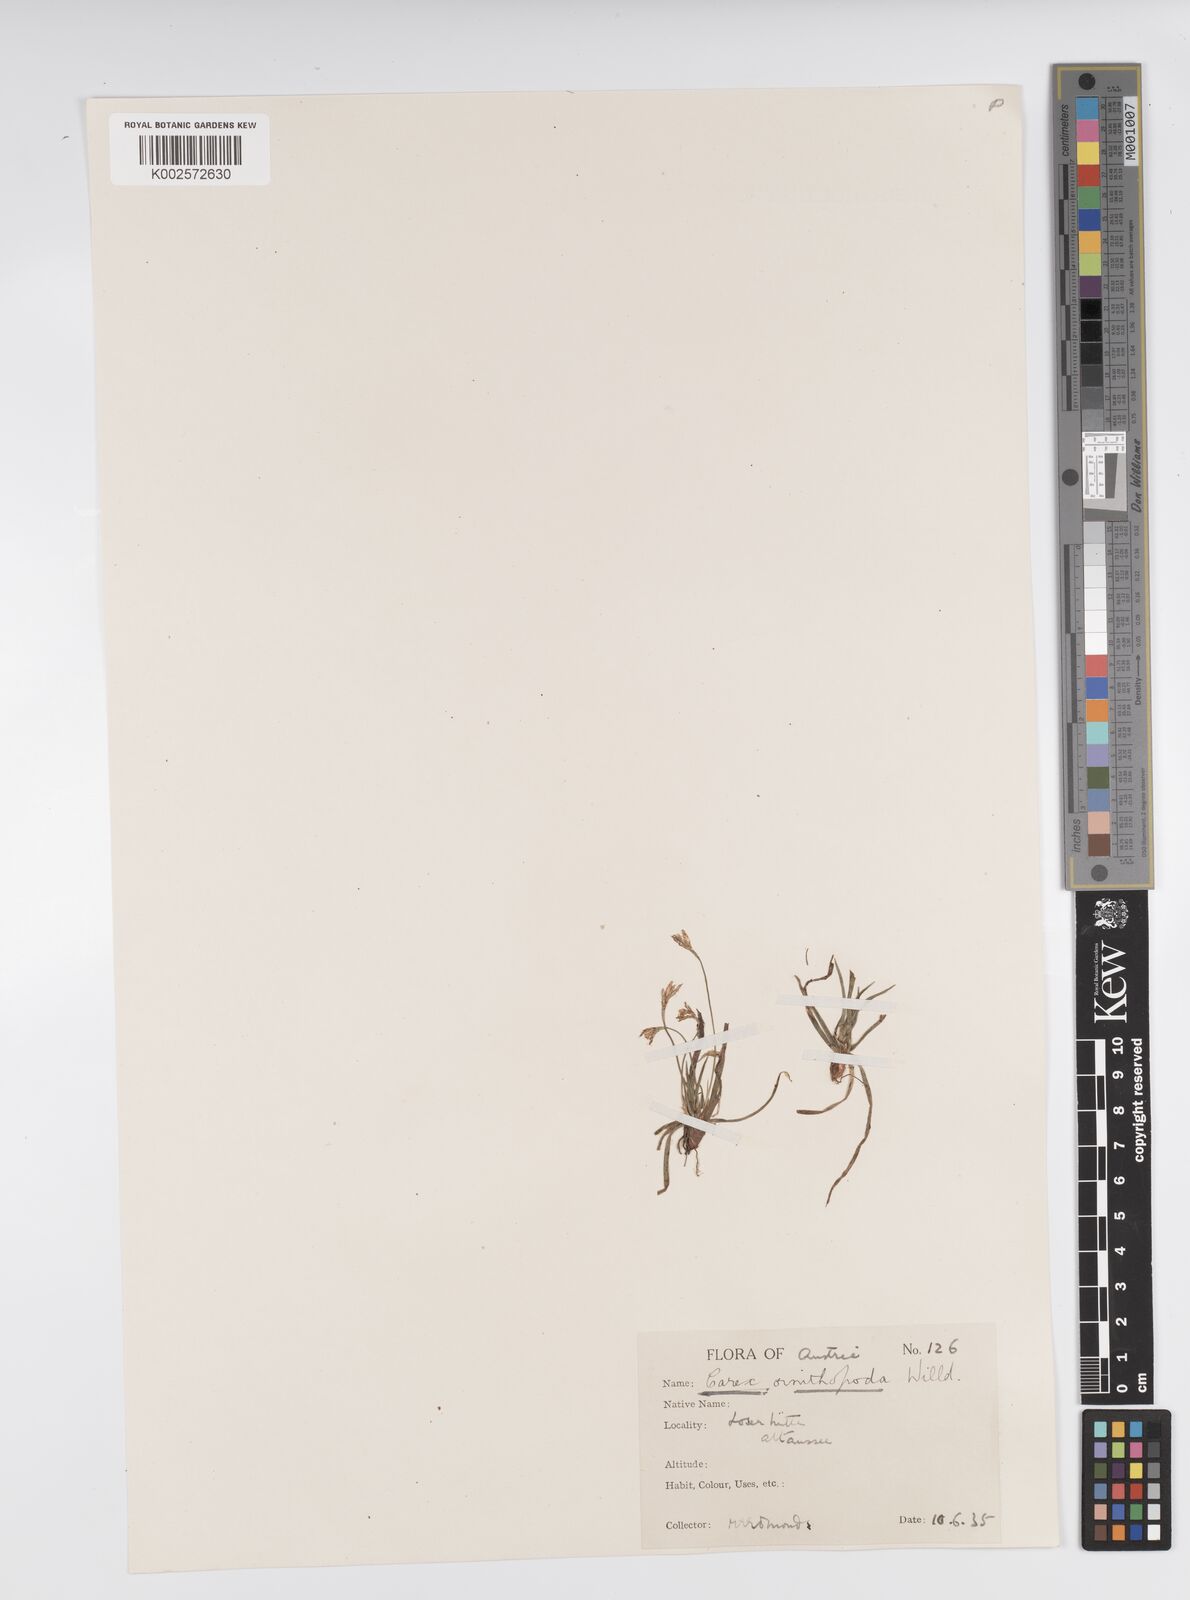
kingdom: Plantae
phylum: Tracheophyta
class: Liliopsida
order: Poales
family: Cyperaceae
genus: Carex
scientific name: Carex ornithopoda
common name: Bird's-foot sedge
